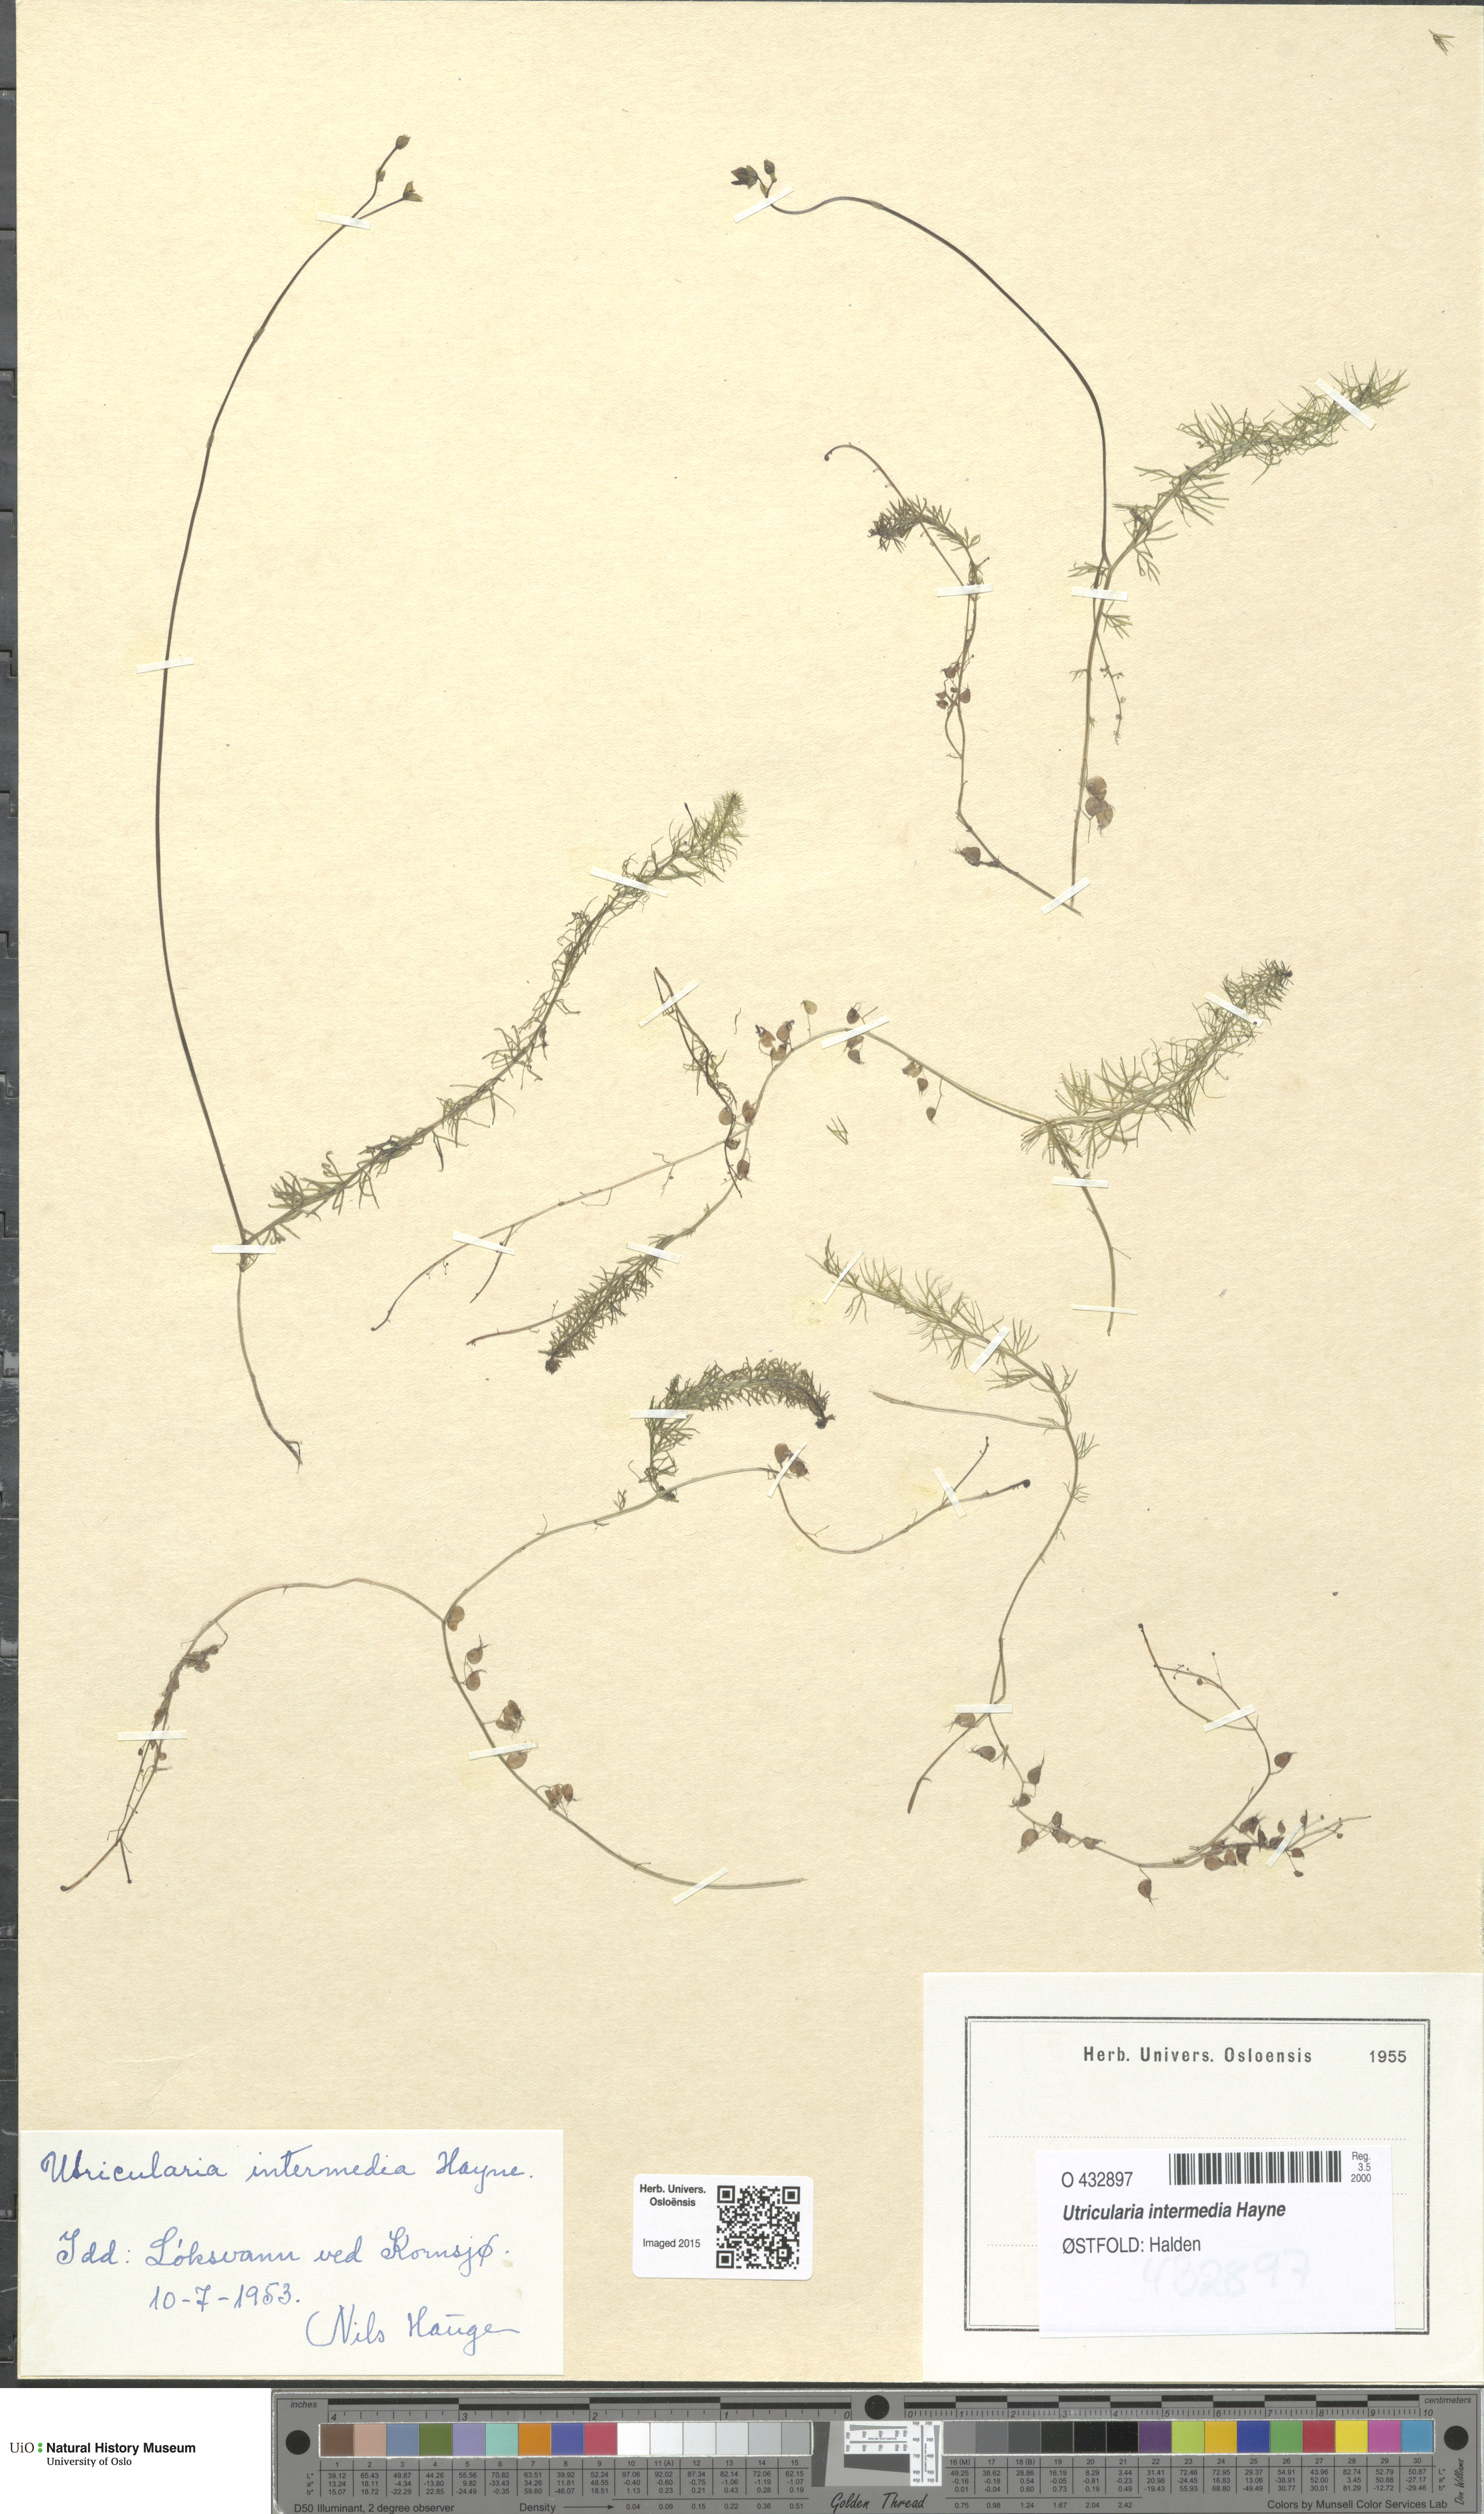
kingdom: Plantae
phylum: Tracheophyta
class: Magnoliopsida
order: Lamiales
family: Lentibulariaceae
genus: Utricularia
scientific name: Utricularia intermedia
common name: Intermediate bladderwort
